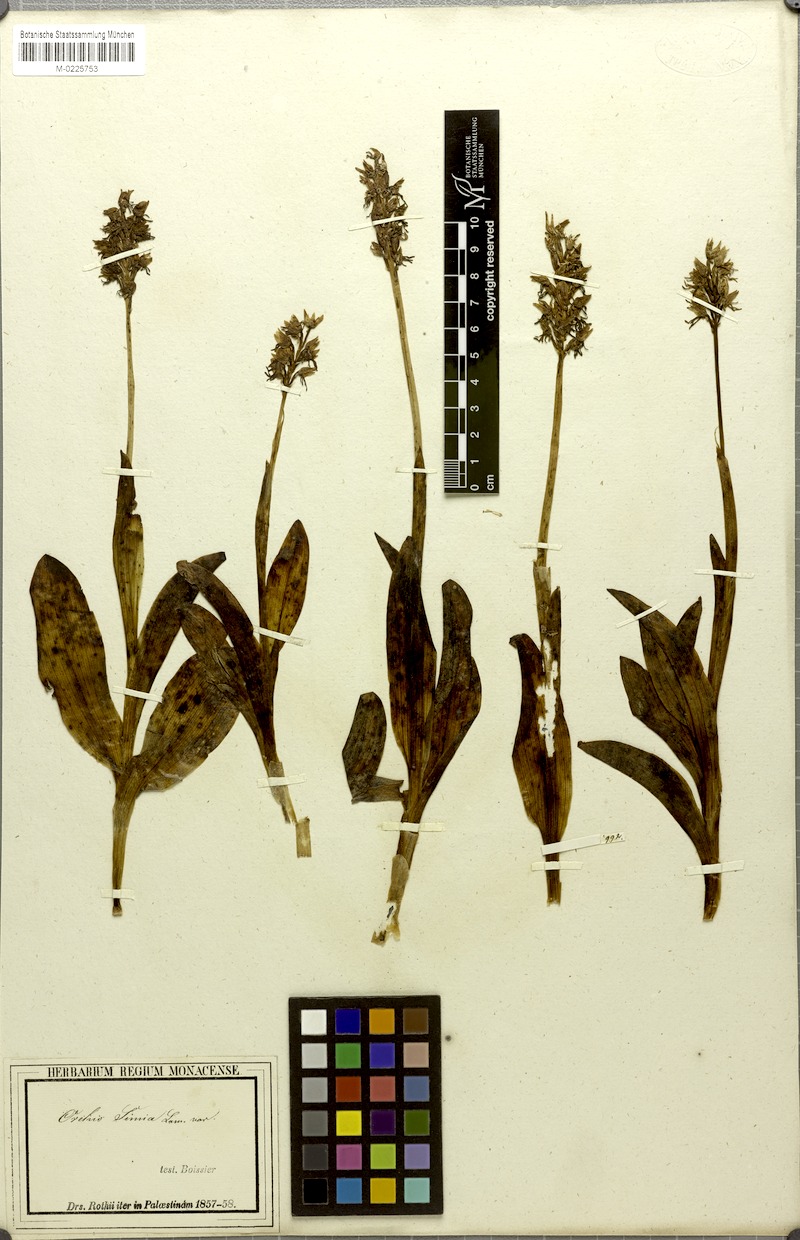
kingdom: Plantae
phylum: Tracheophyta
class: Liliopsida
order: Asparagales
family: Orchidaceae
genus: Orchis
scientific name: Orchis simia
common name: Monkey orchid
